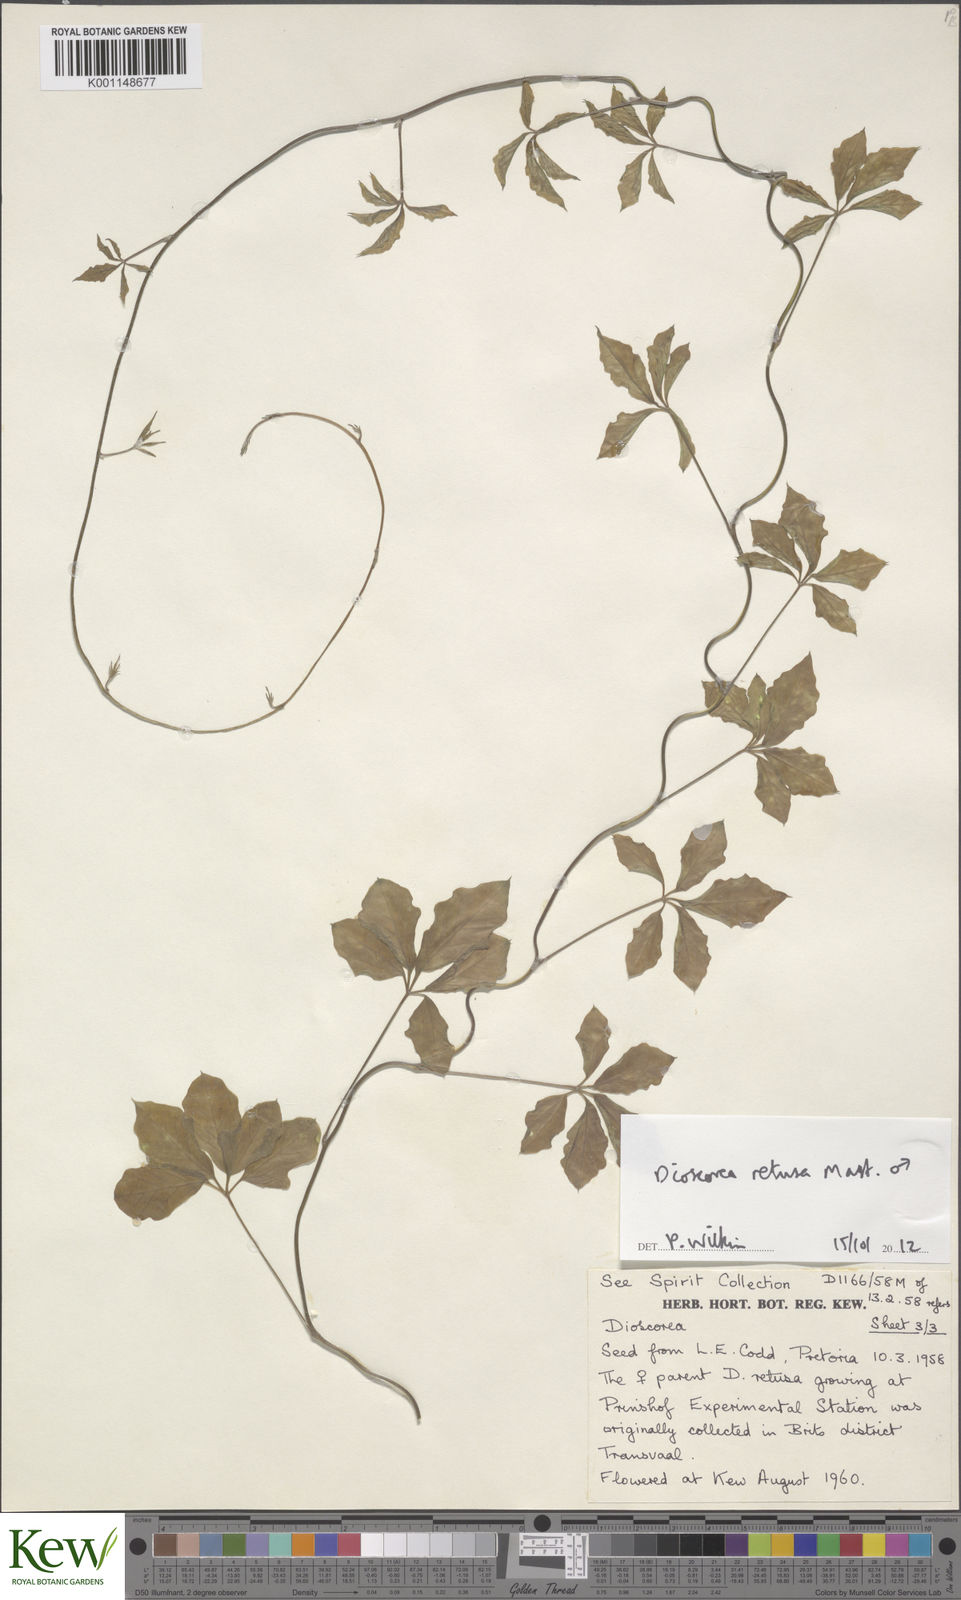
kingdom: Plantae
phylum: Tracheophyta
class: Liliopsida
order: Dioscoreales
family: Dioscoreaceae
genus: Dioscorea
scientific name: Dioscorea retusa
